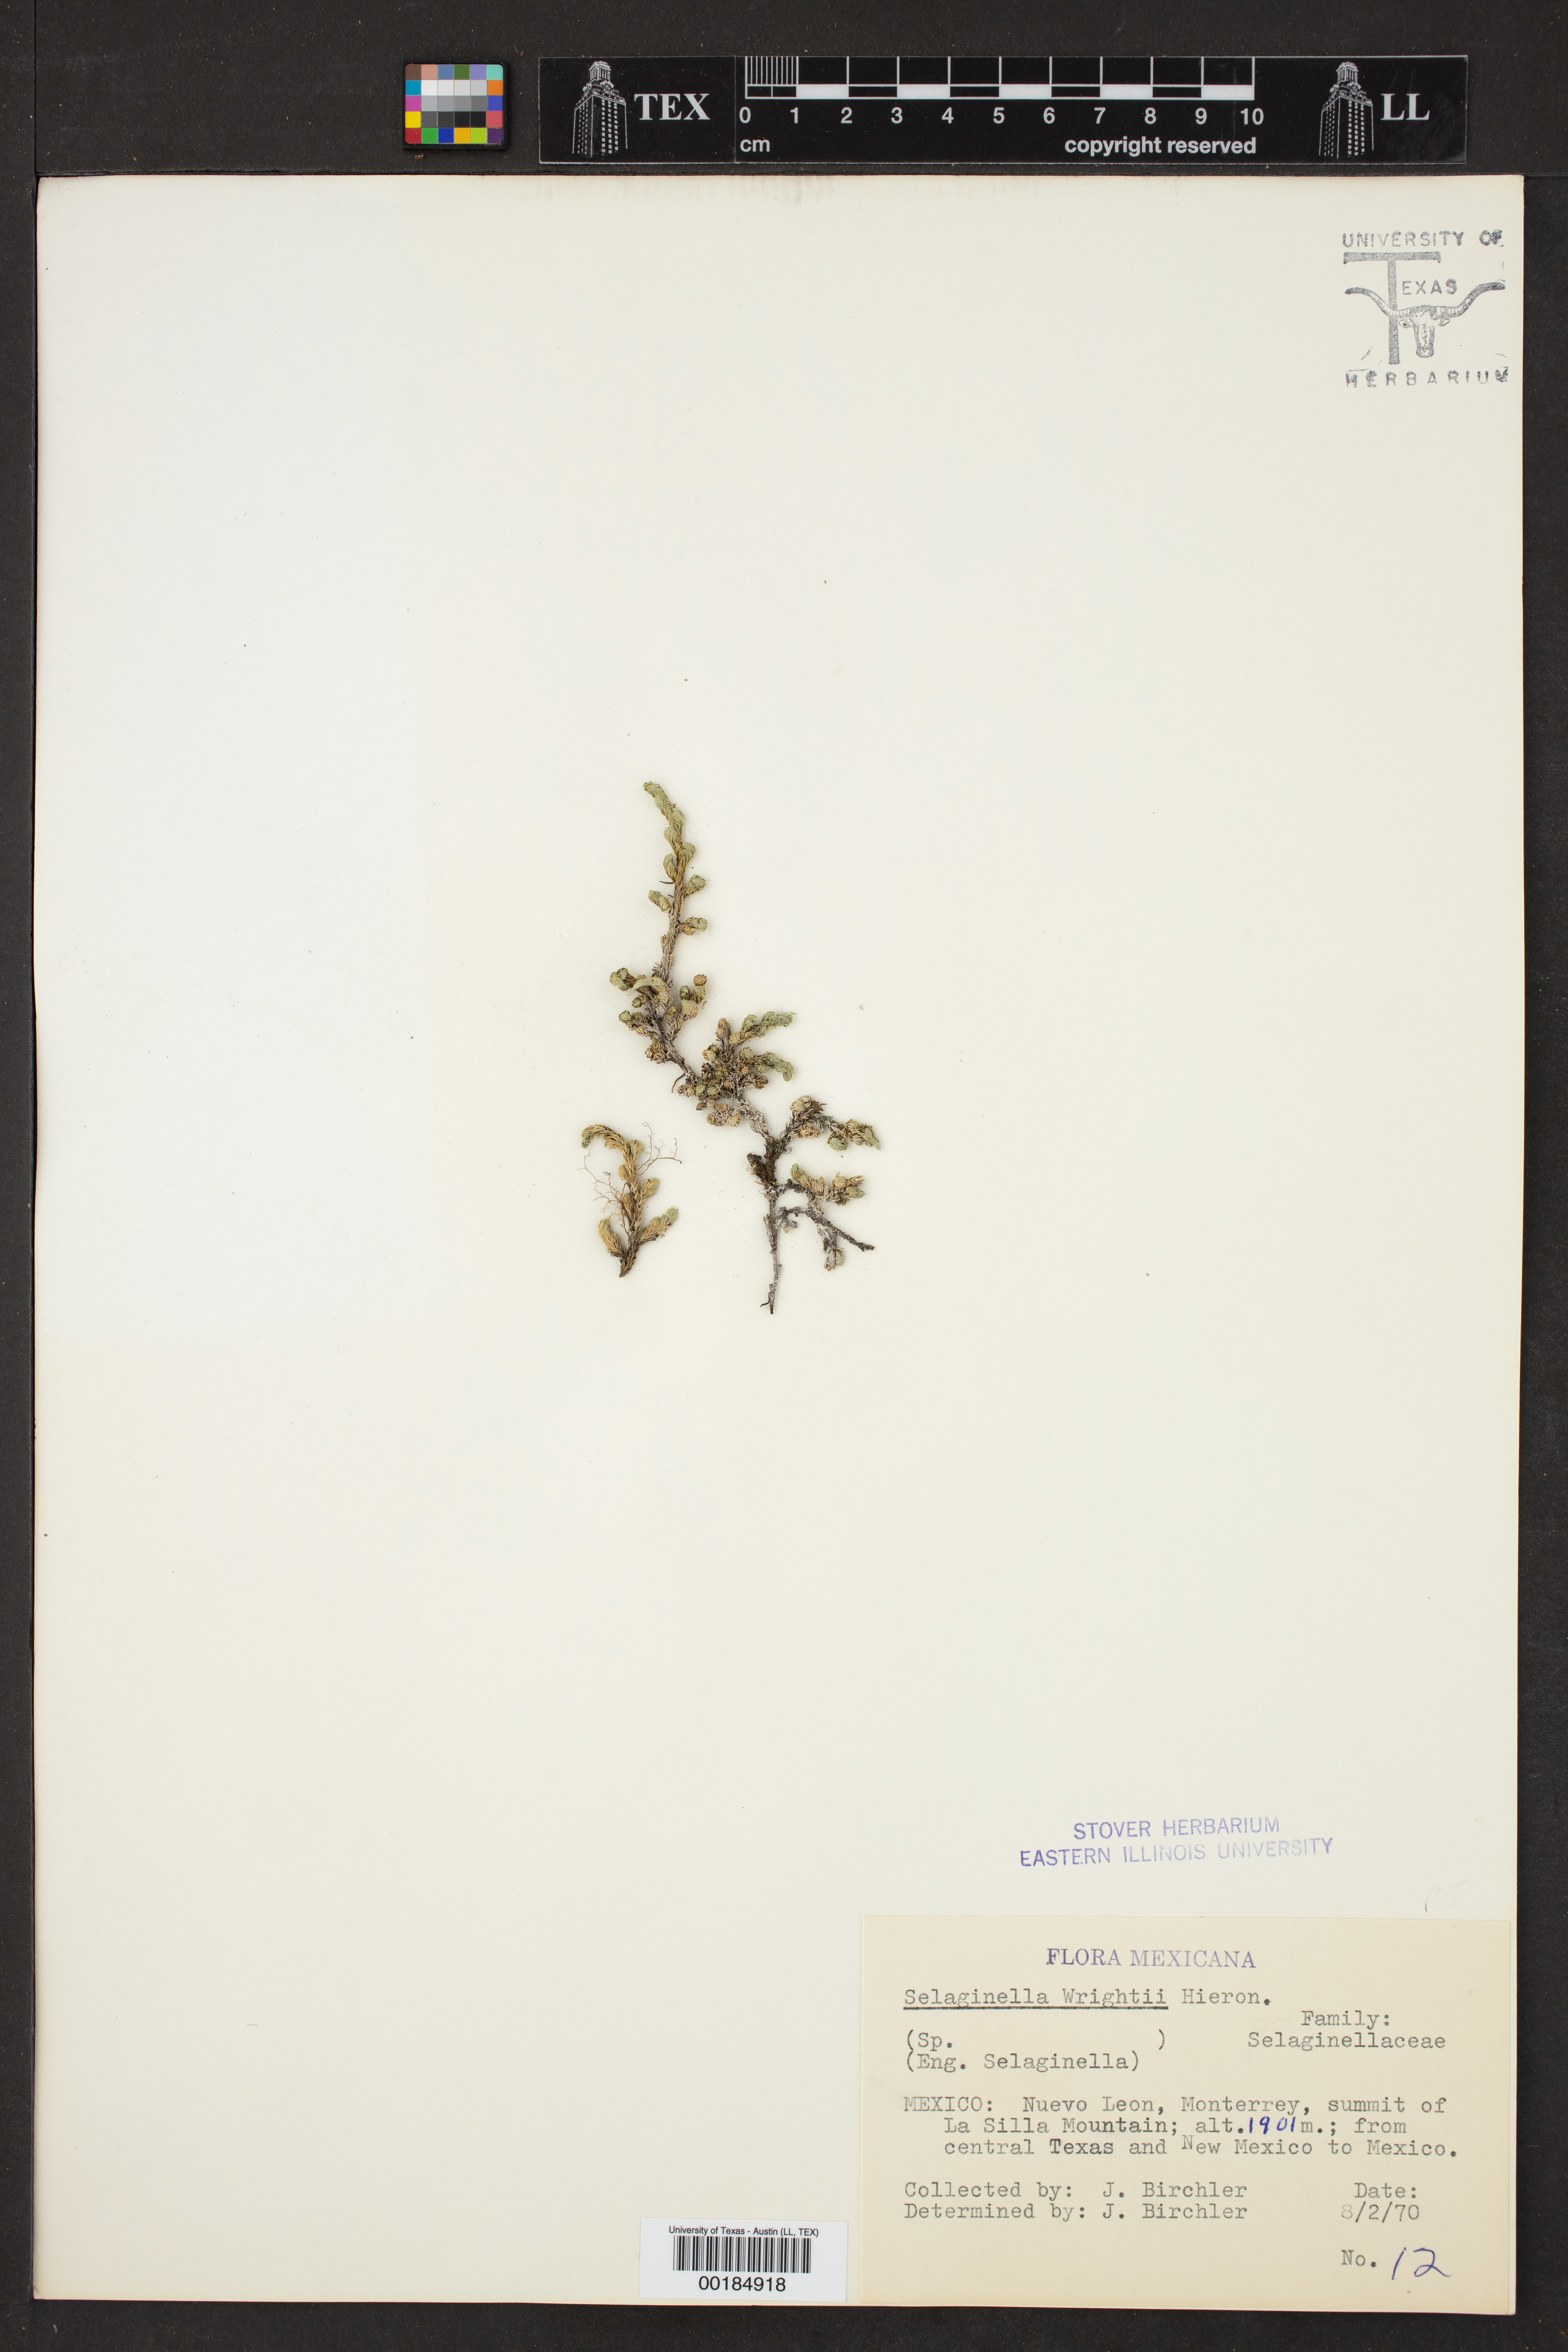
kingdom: Plantae
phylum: Tracheophyta
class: Lycopodiopsida
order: Selaginellales
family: Selaginellaceae
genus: Selaginella
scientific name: Selaginella wrightii
